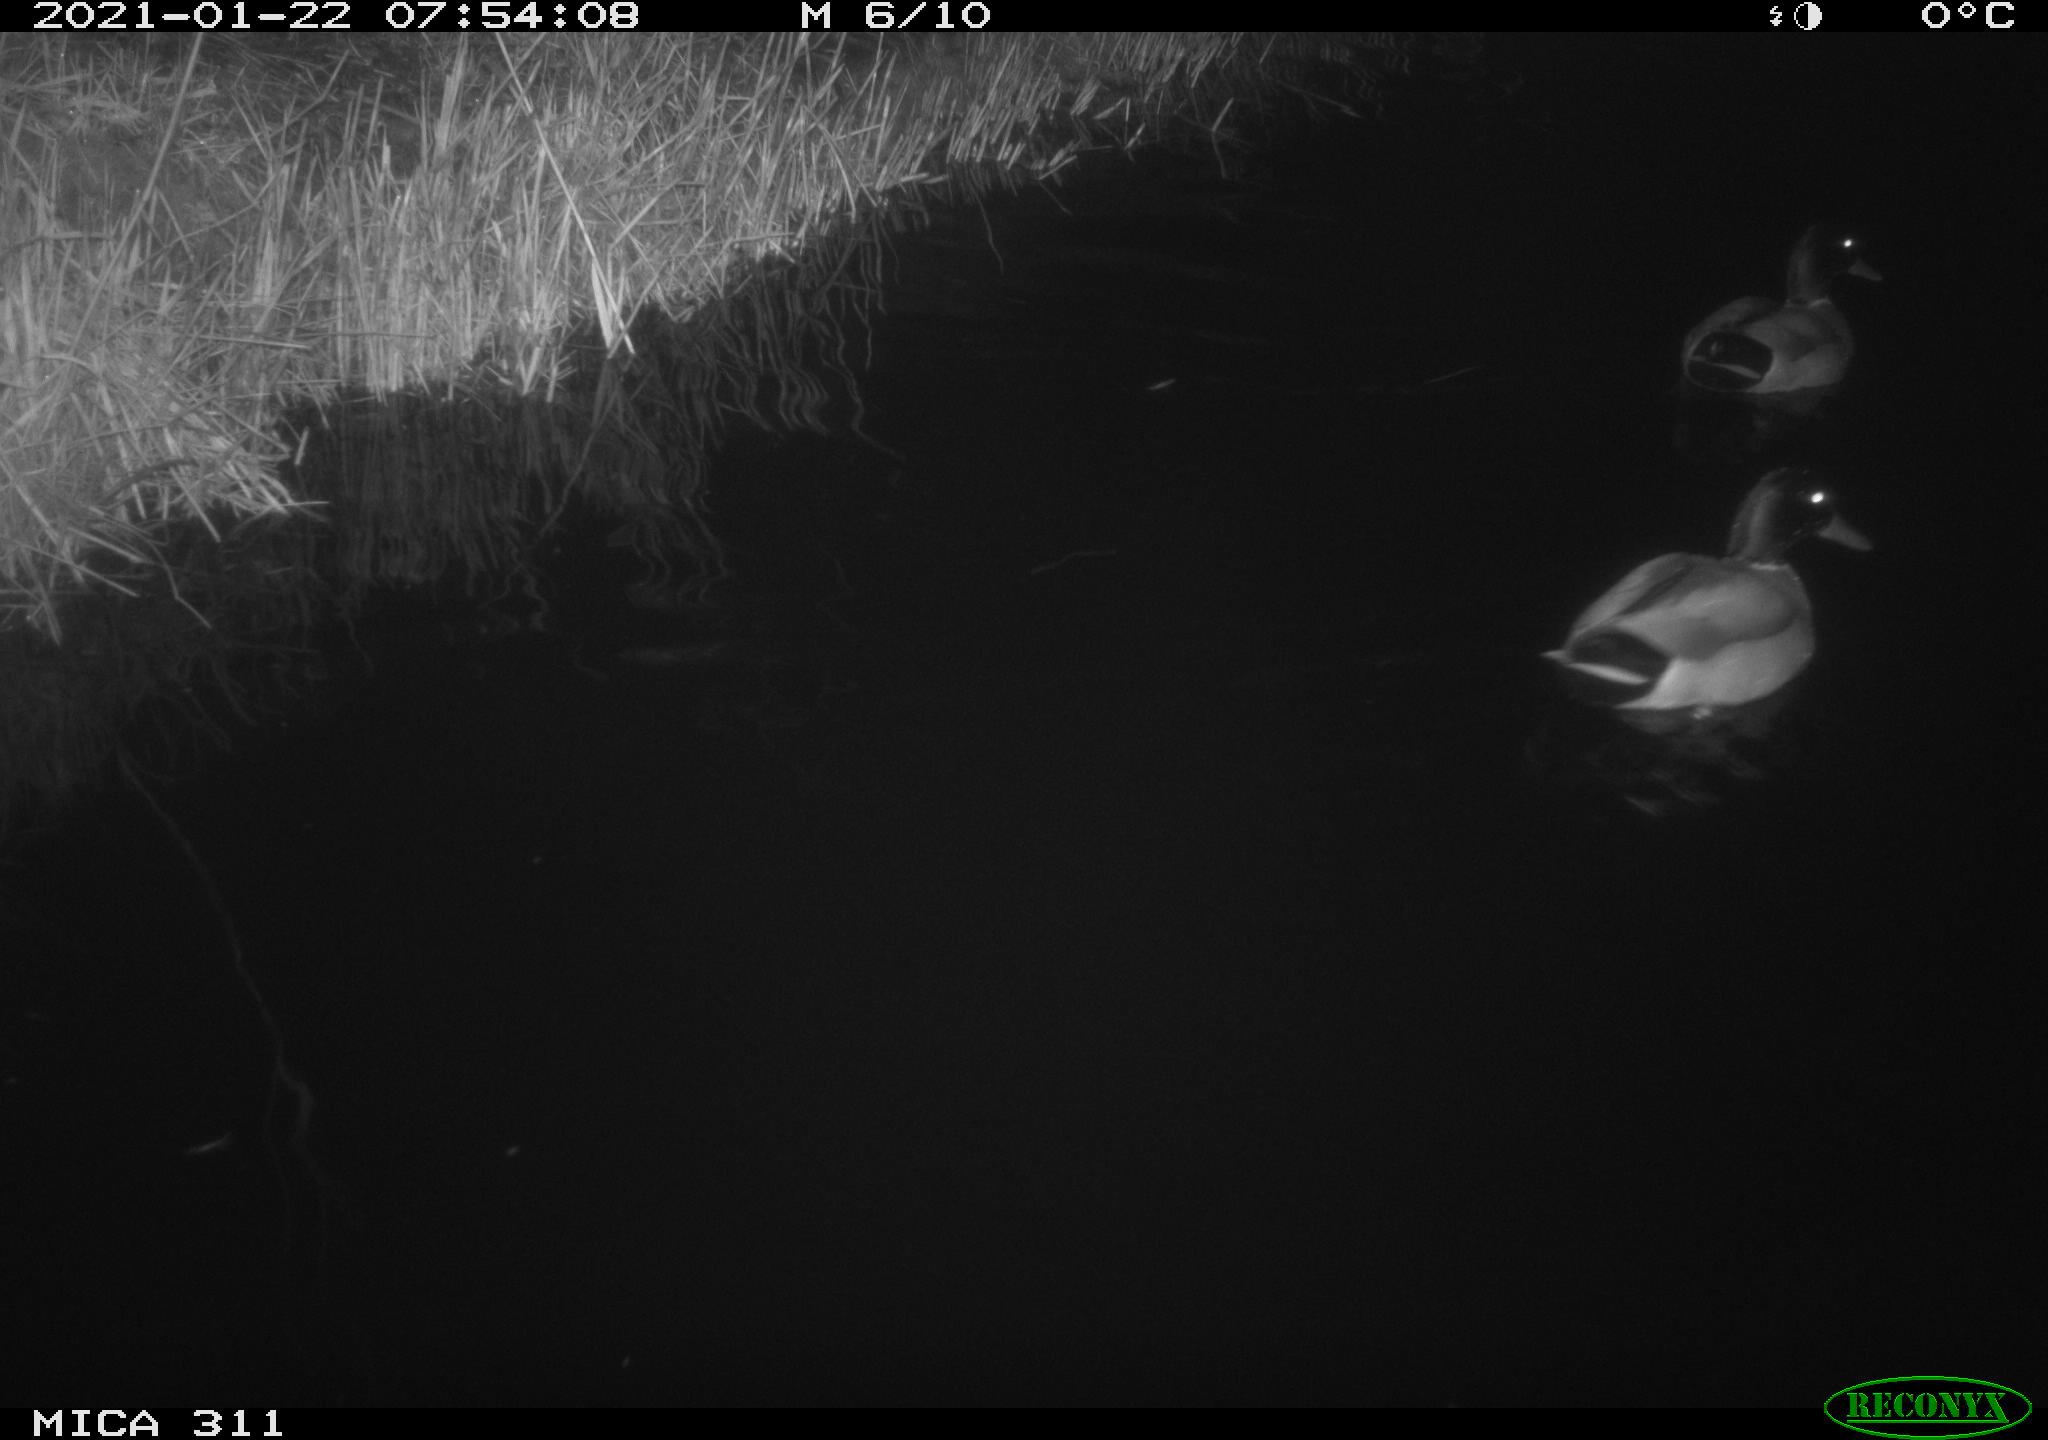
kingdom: Animalia
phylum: Chordata
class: Aves
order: Anseriformes
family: Anatidae
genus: Anas
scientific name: Anas
